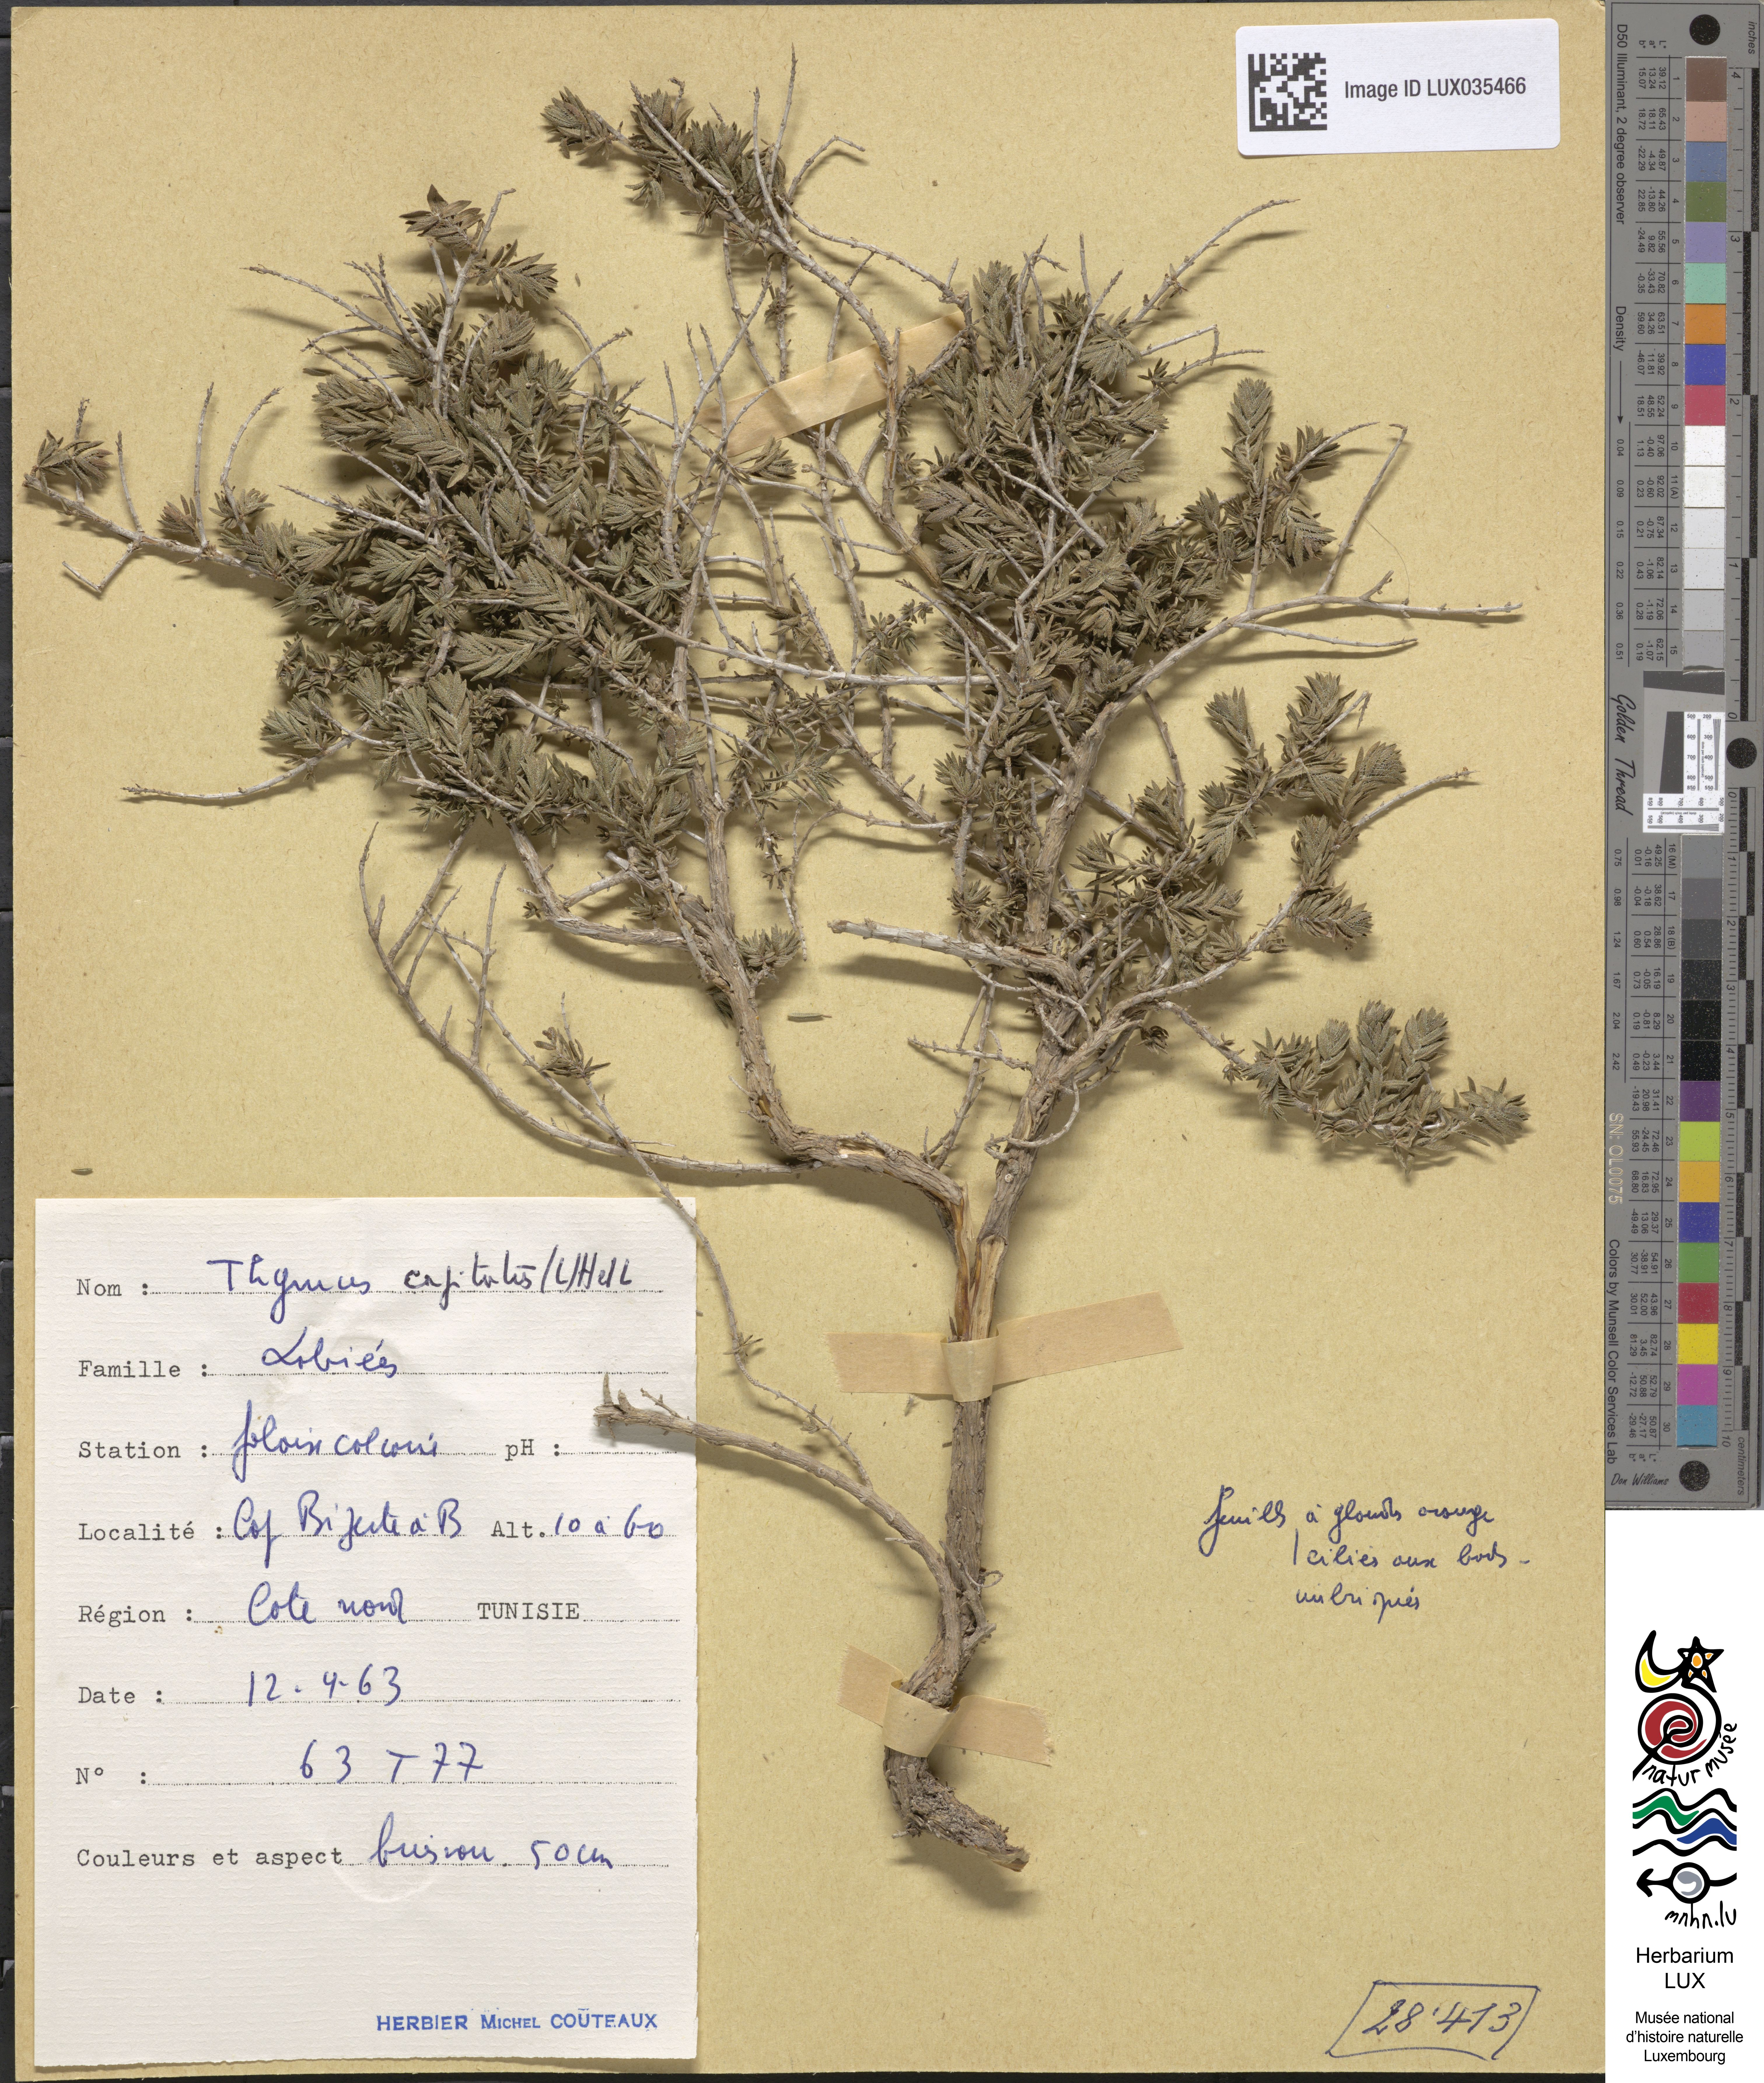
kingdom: Plantae
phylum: Tracheophyta
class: Magnoliopsida
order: Lamiales
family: Lamiaceae
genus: Thymbra
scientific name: Thymbra capitata
